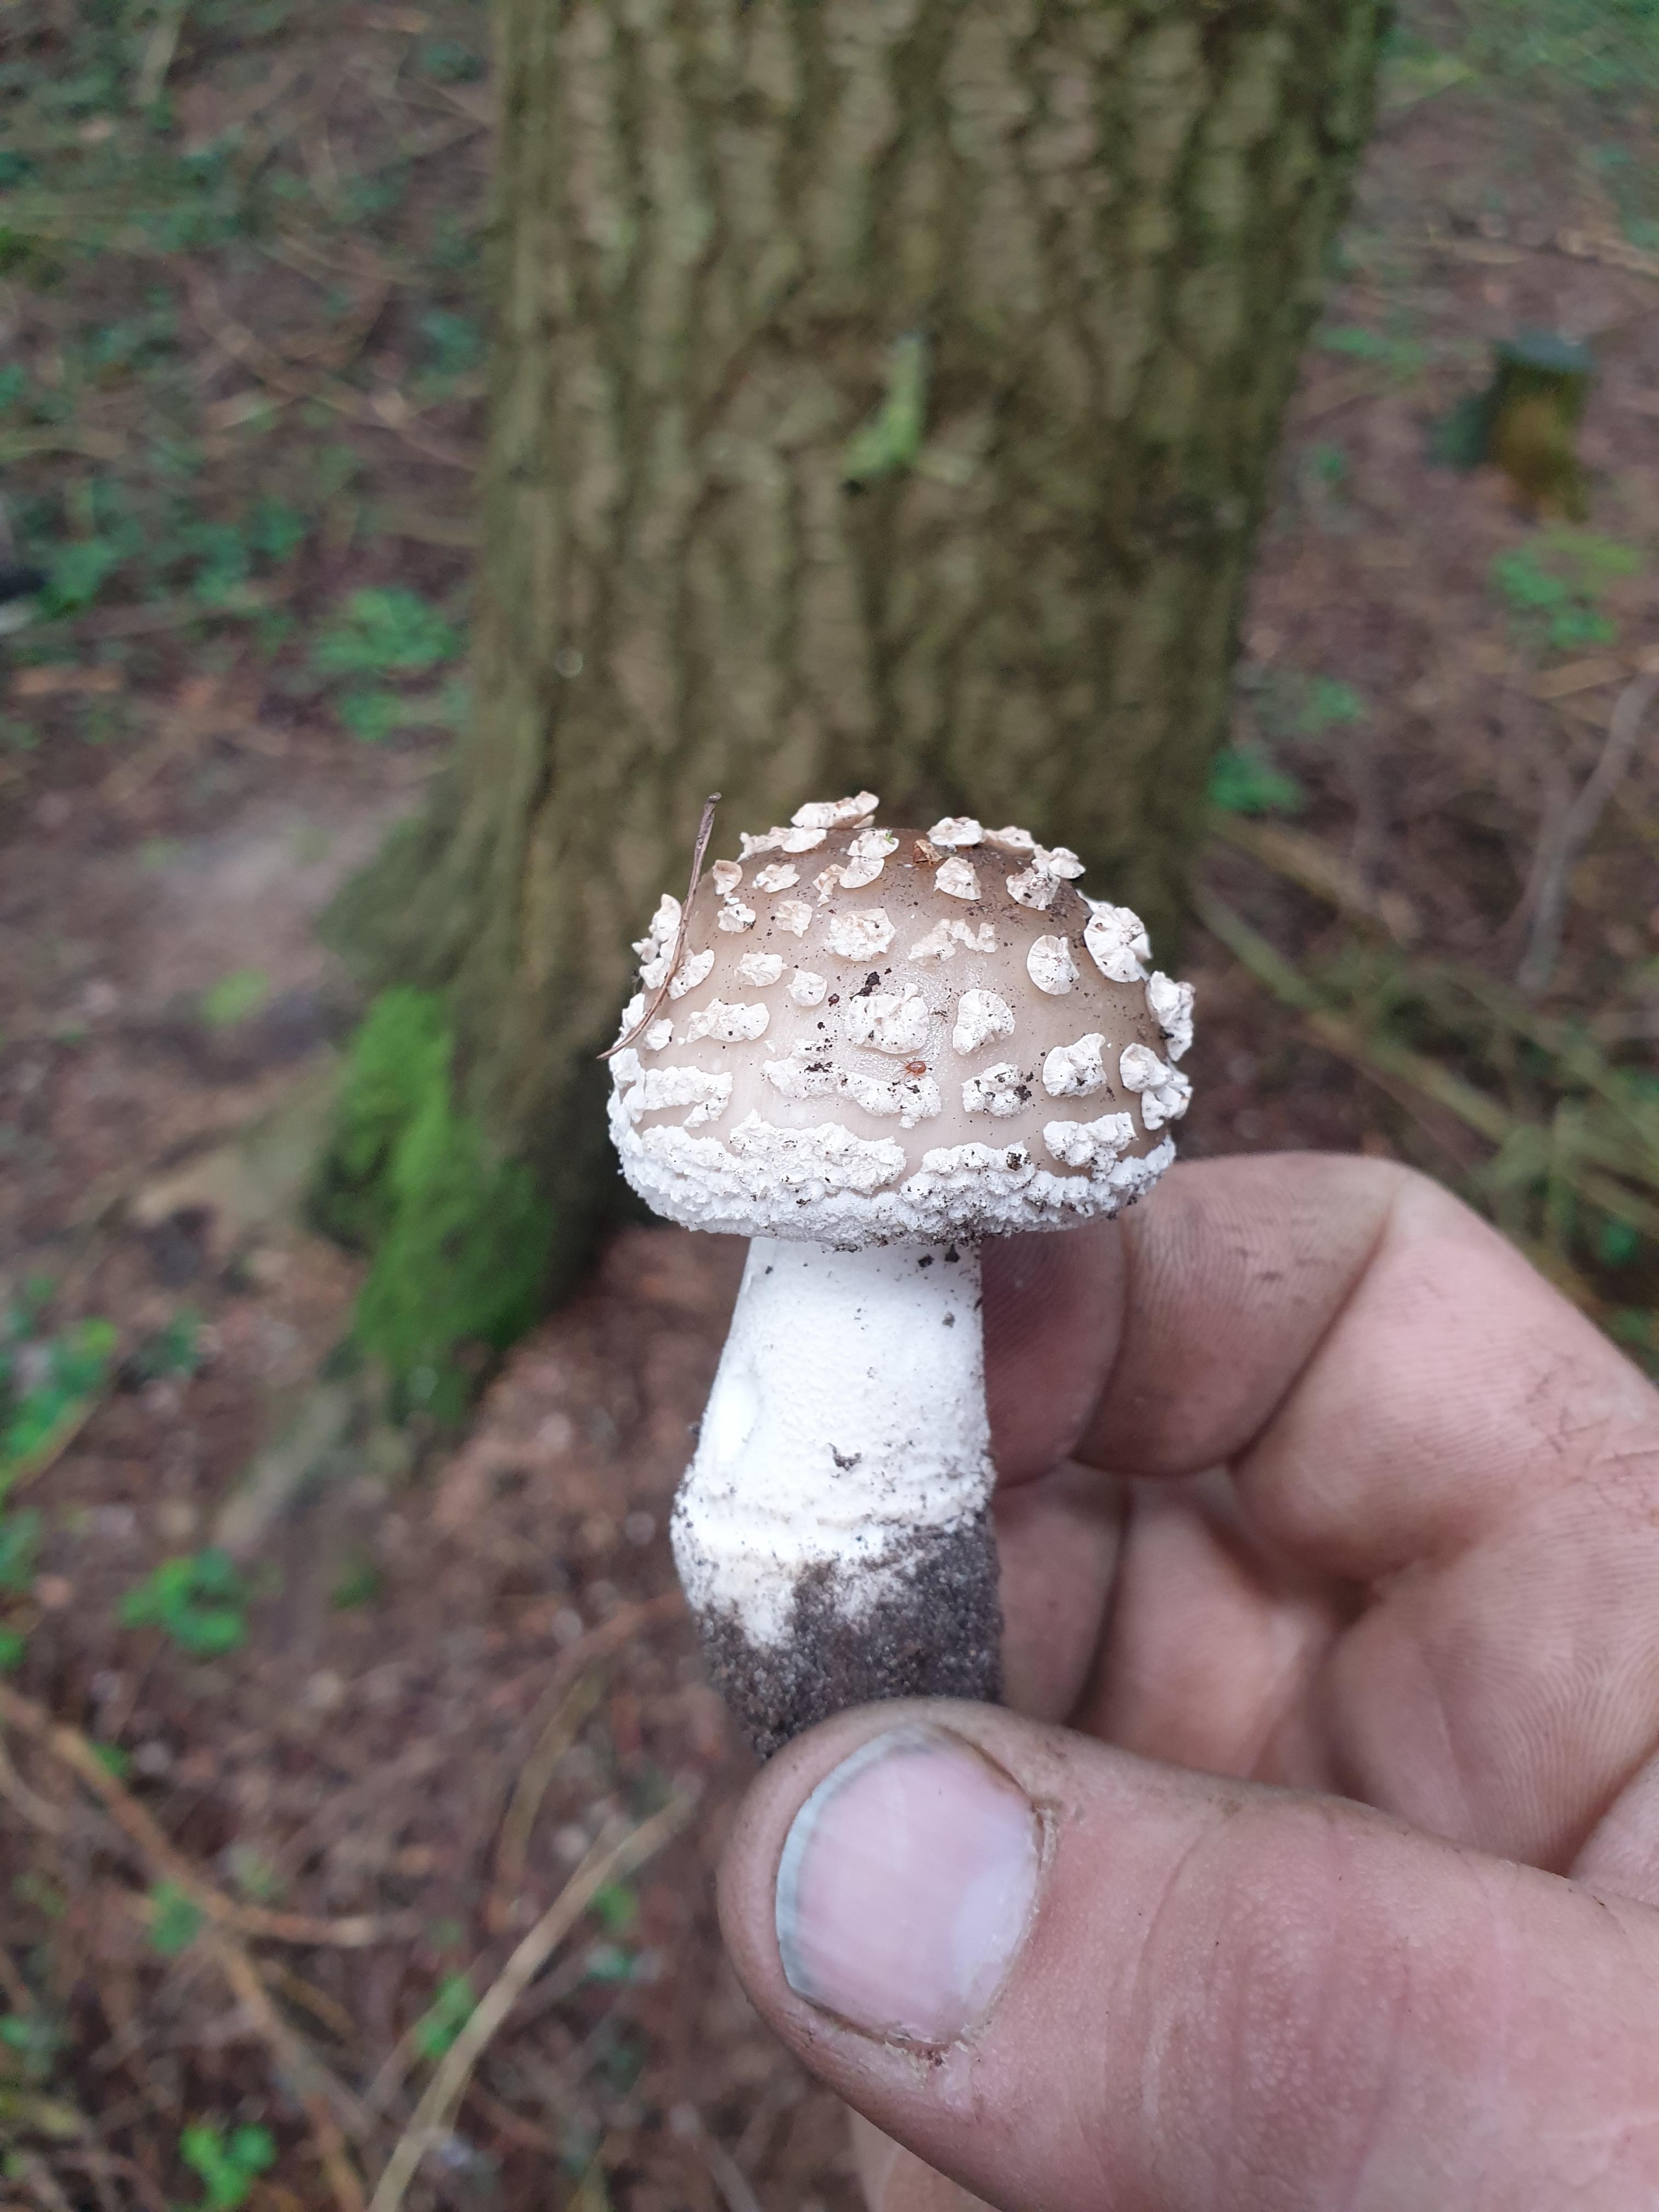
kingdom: Fungi
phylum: Basidiomycota
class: Agaricomycetes
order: Agaricales
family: Amanitaceae
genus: Amanita
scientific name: Amanita
